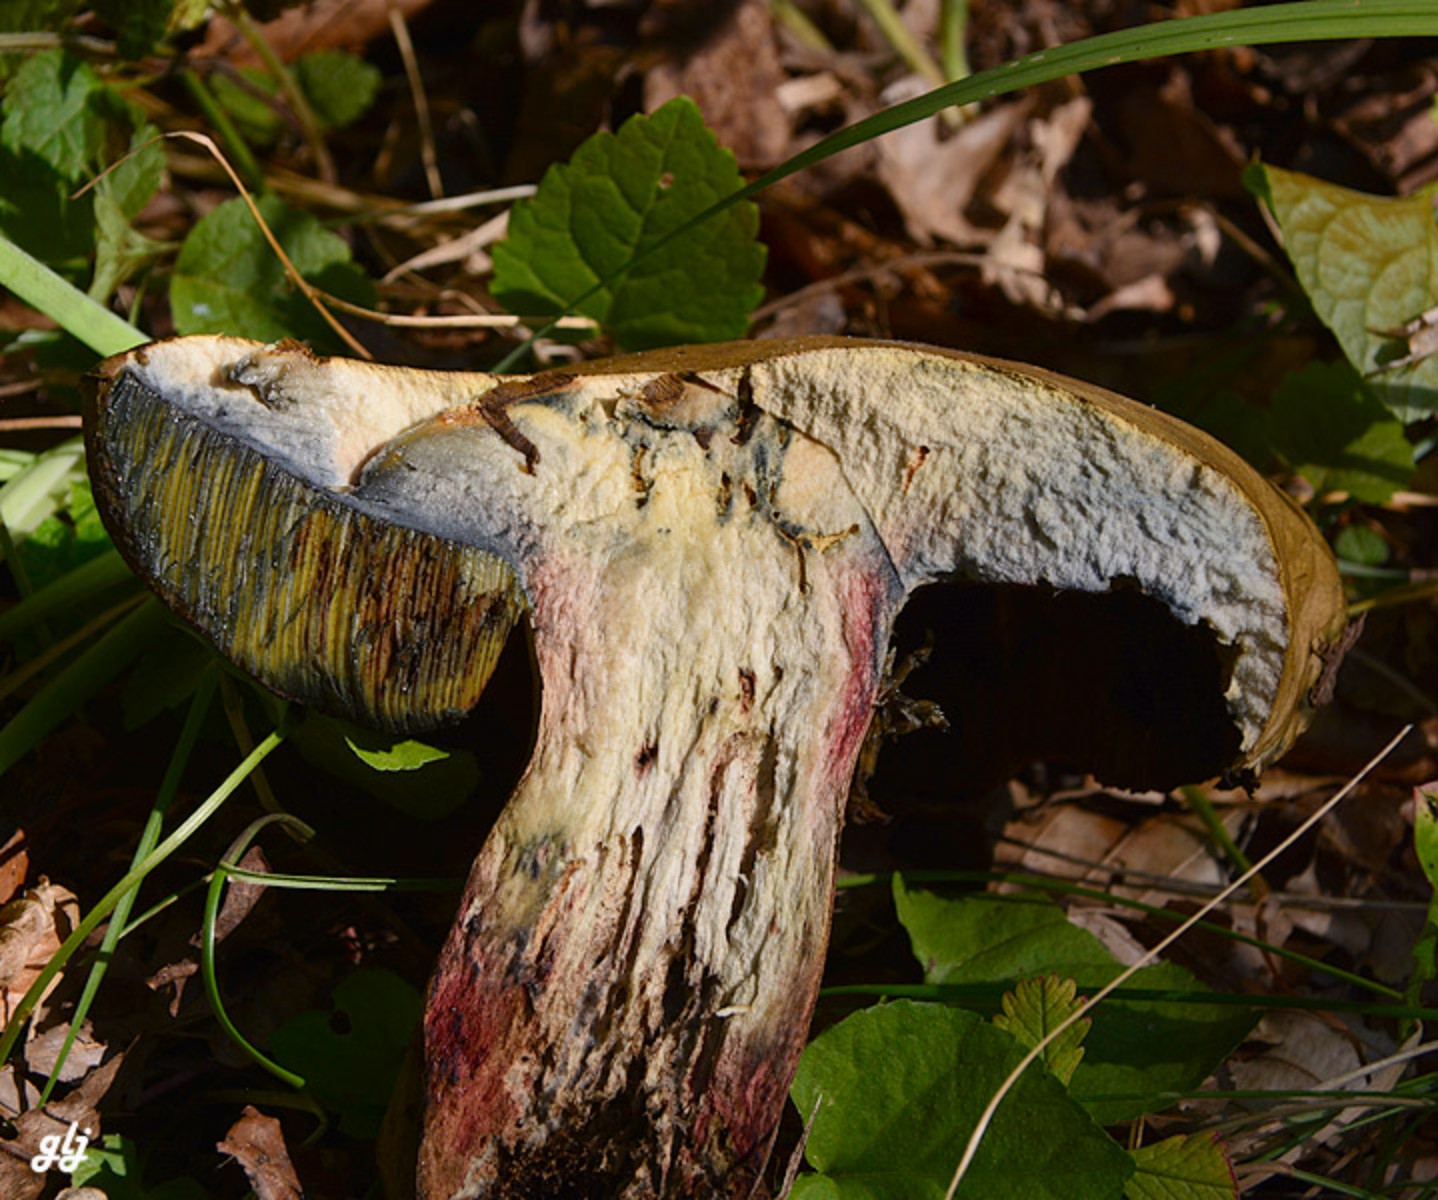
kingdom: Fungi
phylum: Basidiomycota
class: Agaricomycetes
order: Boletales
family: Boletaceae
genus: Suillellus
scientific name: Suillellus luridus
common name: netstokket indigorørhat
